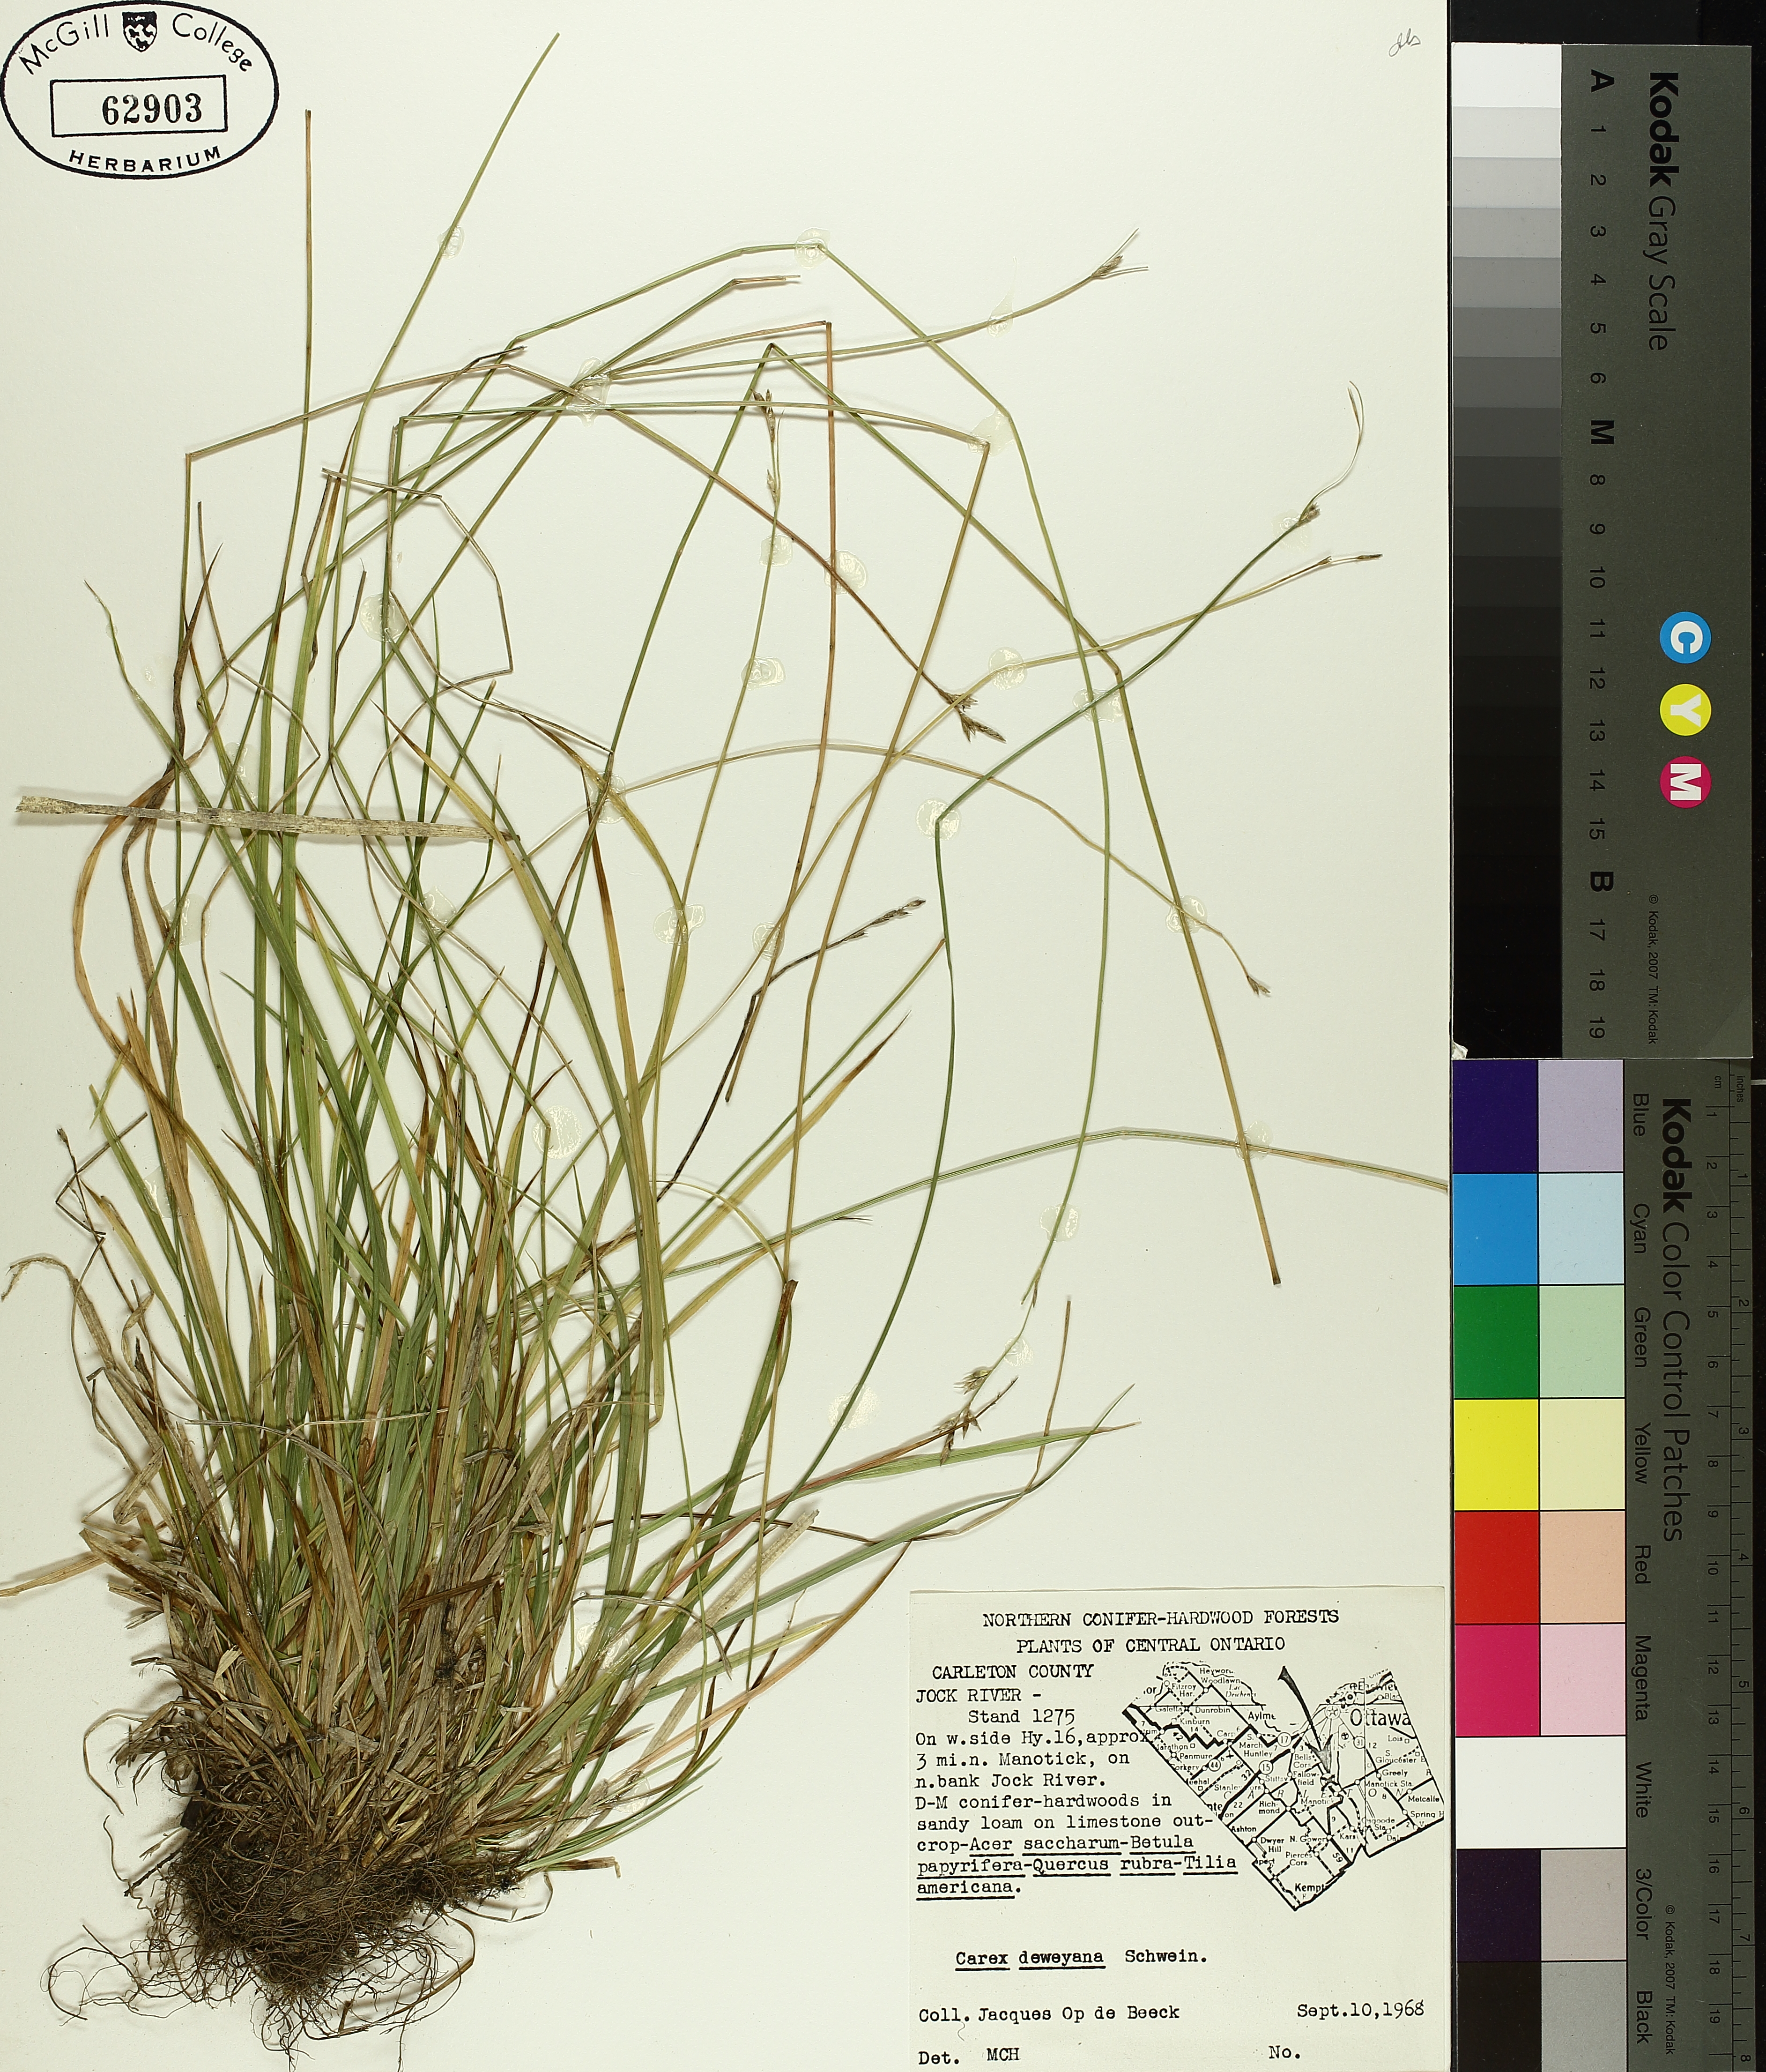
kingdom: Plantae
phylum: Tracheophyta
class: Liliopsida
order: Poales
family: Cyperaceae
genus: Carex
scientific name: Carex deweyana
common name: Dewey's sedge
